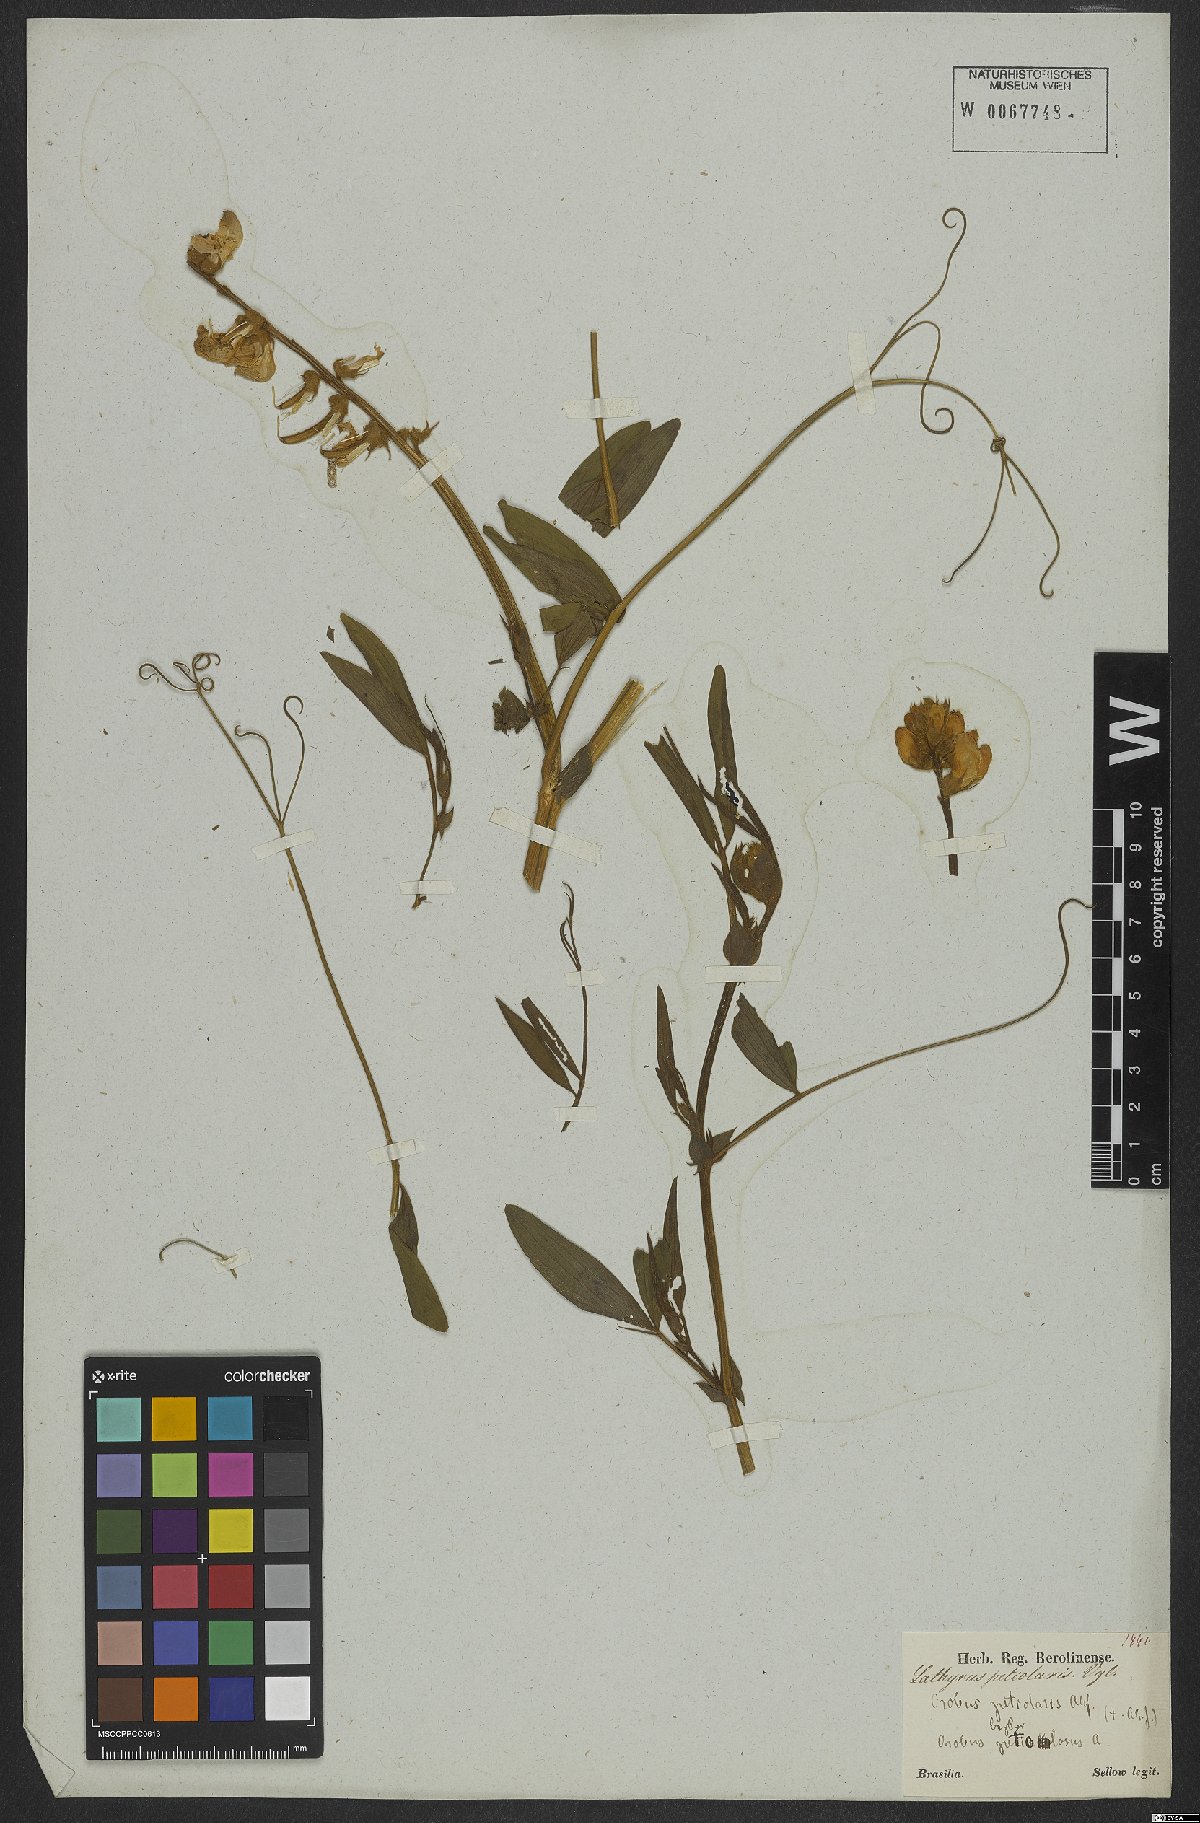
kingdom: Plantae
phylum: Tracheophyta
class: Magnoliopsida
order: Fabales
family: Fabaceae
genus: Lathyrus
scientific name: Lathyrus pubescens
